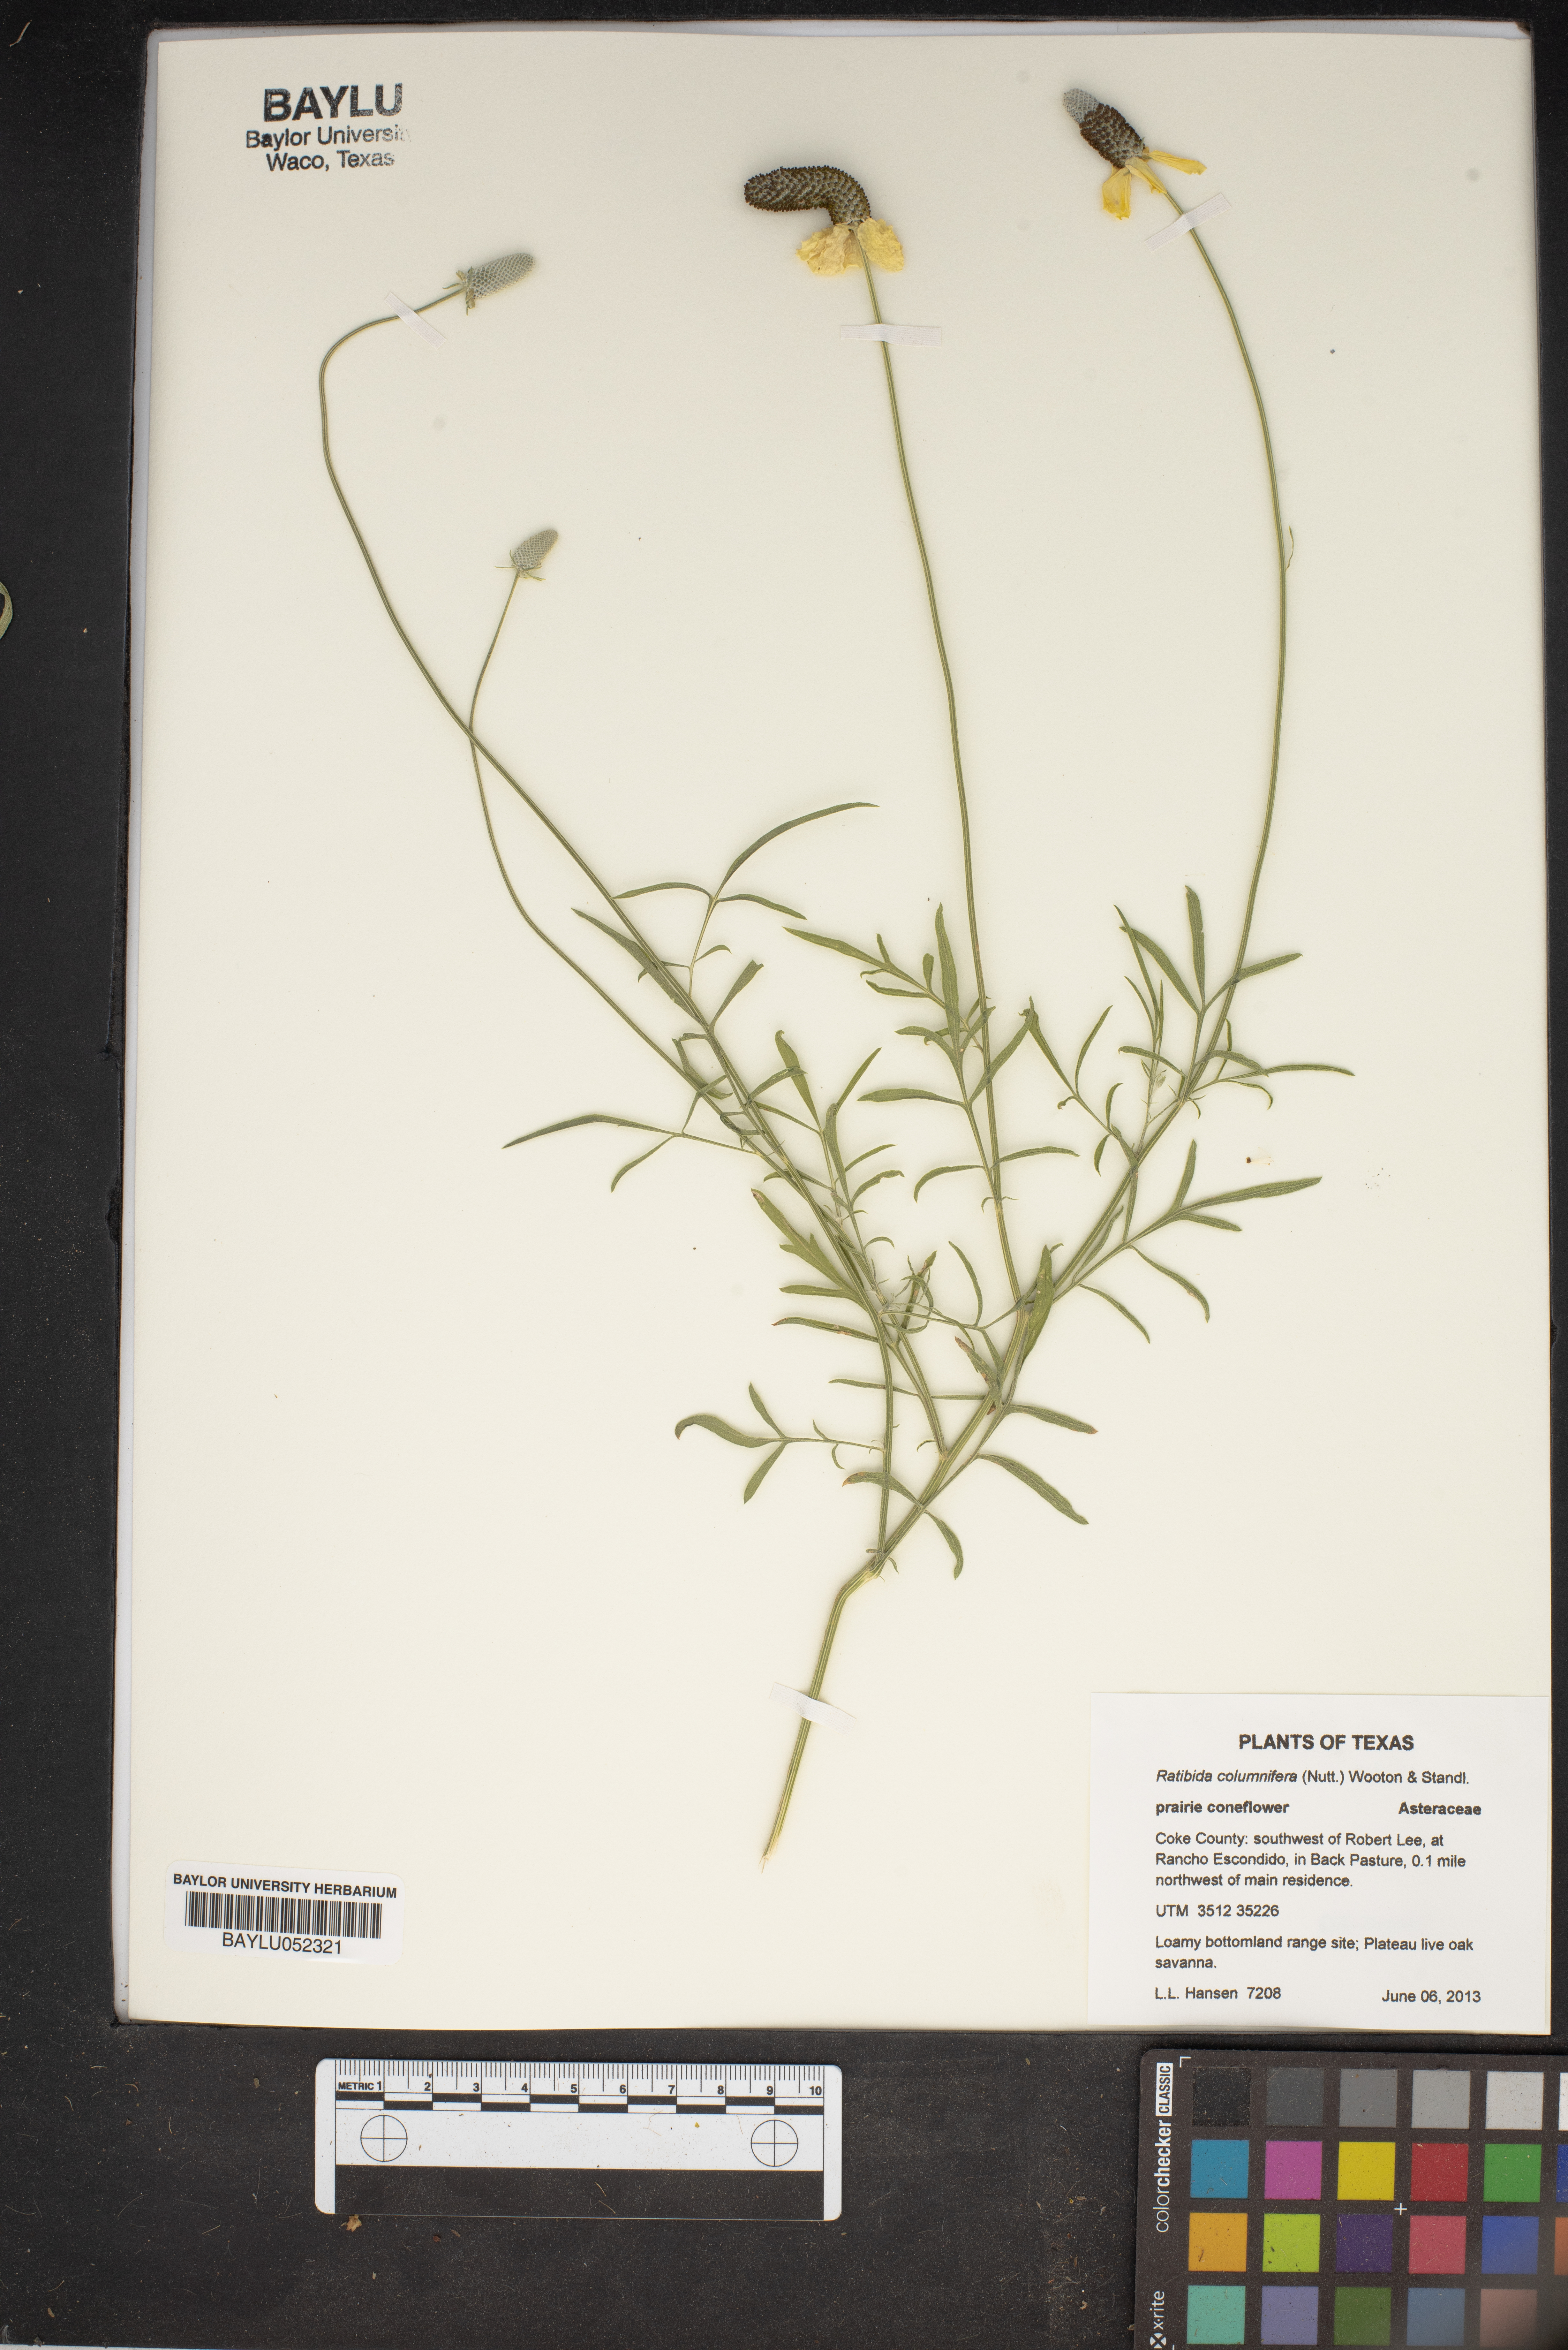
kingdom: Plantae
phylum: Tracheophyta
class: Magnoliopsida
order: Asterales
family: Asteraceae
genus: Ratibida
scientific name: Ratibida columnifera
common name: Prairie coneflower
